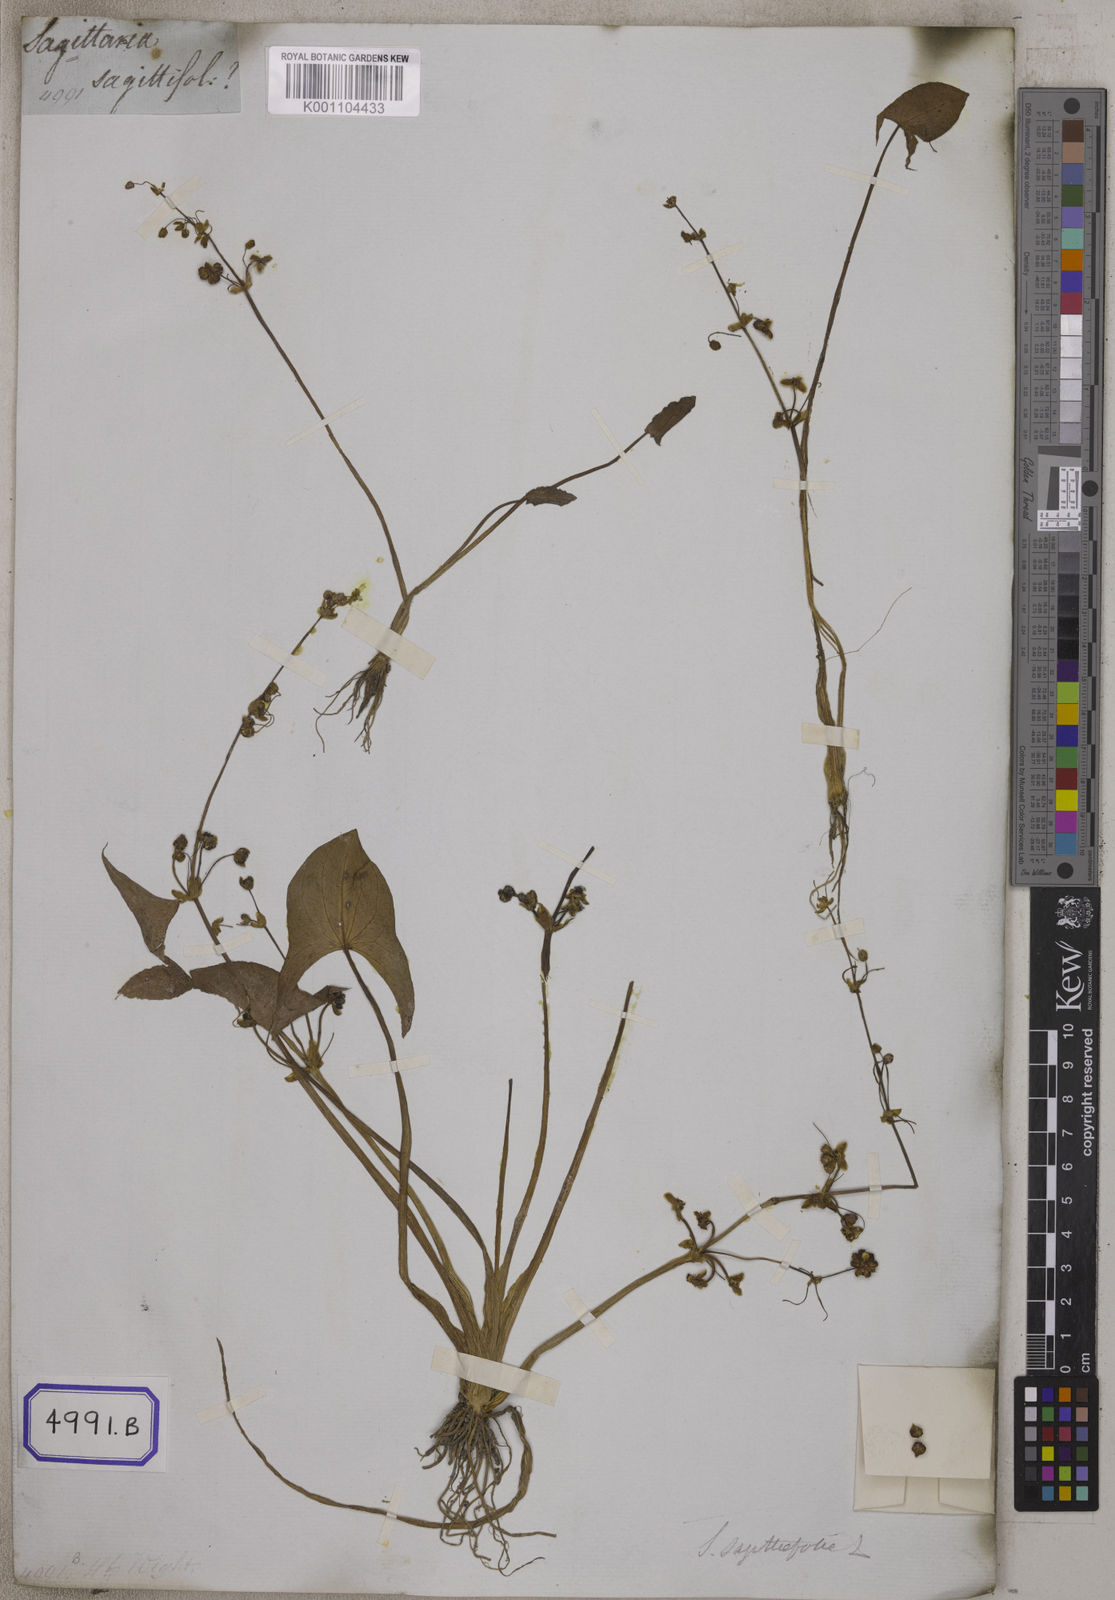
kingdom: Plantae
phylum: Tracheophyta
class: Liliopsida
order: Alismatales
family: Alismataceae
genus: Sagittaria
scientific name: Sagittaria sagittifolia
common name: Arrowhead
